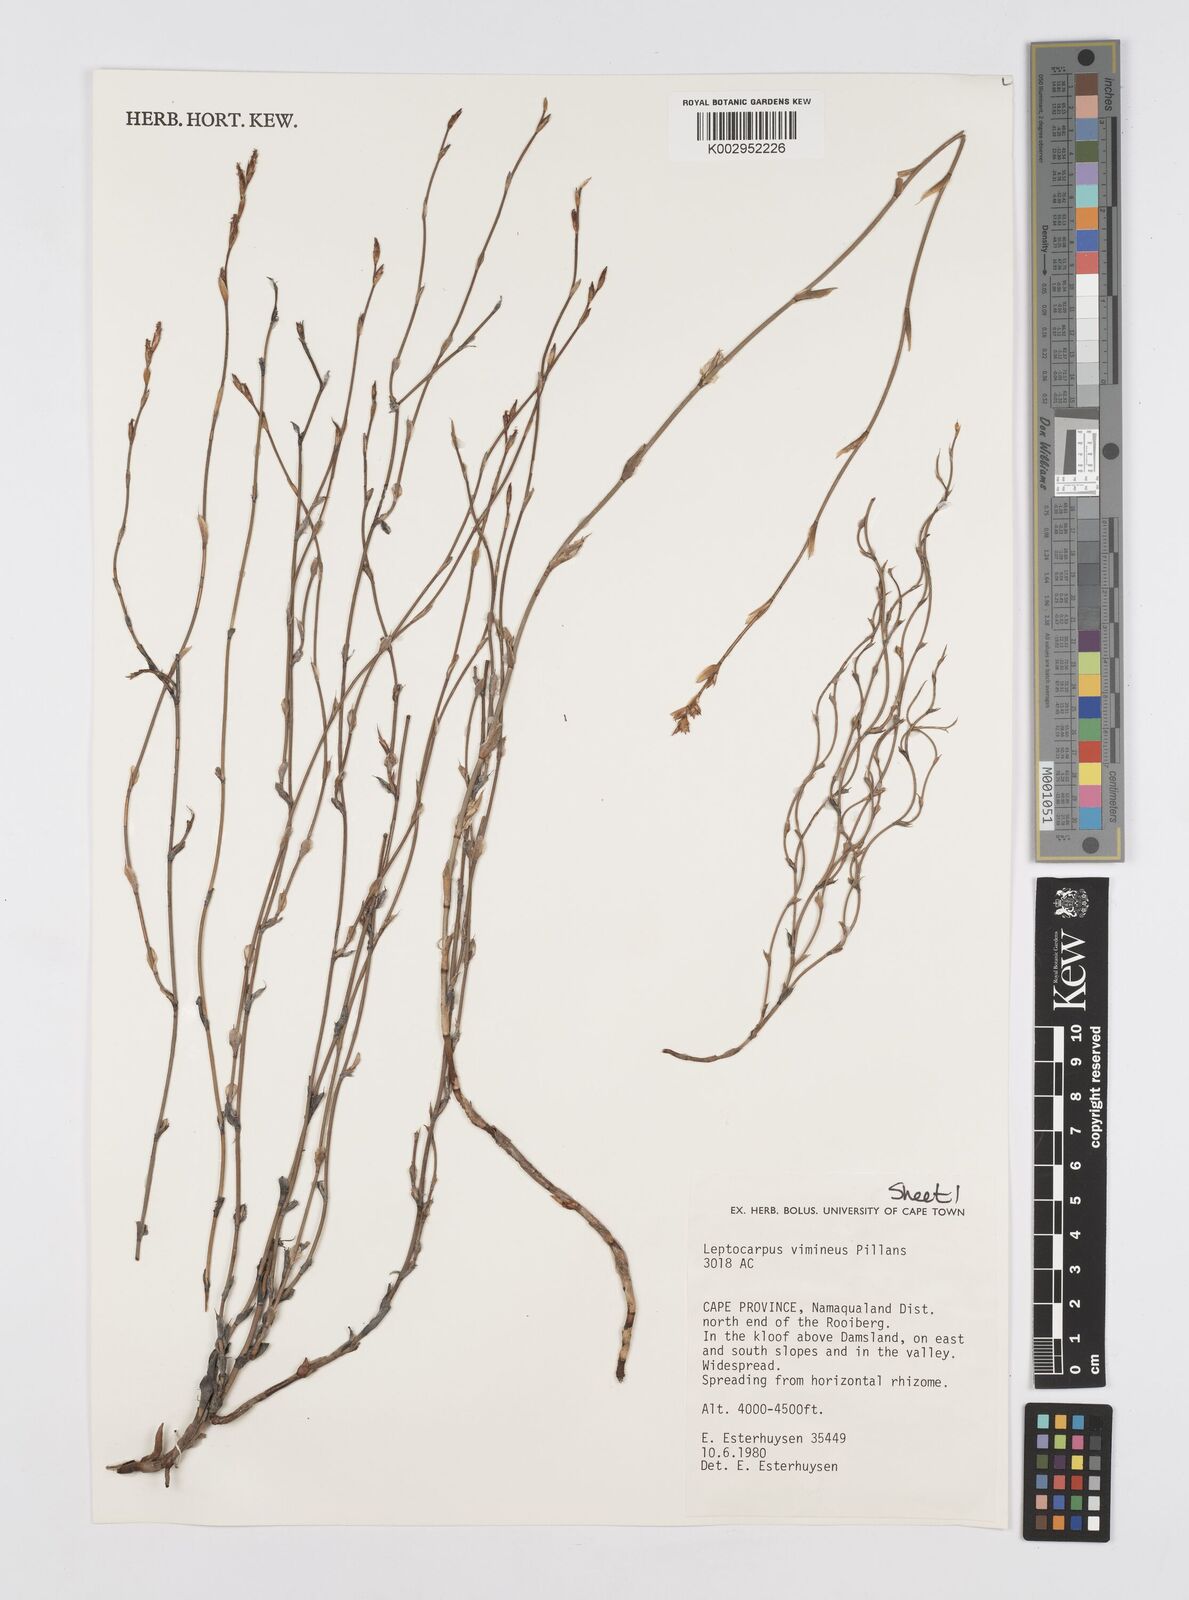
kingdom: Plantae
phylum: Tracheophyta
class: Liliopsida
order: Poales
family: Restionaceae
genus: Restio
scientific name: Restio vimineus
